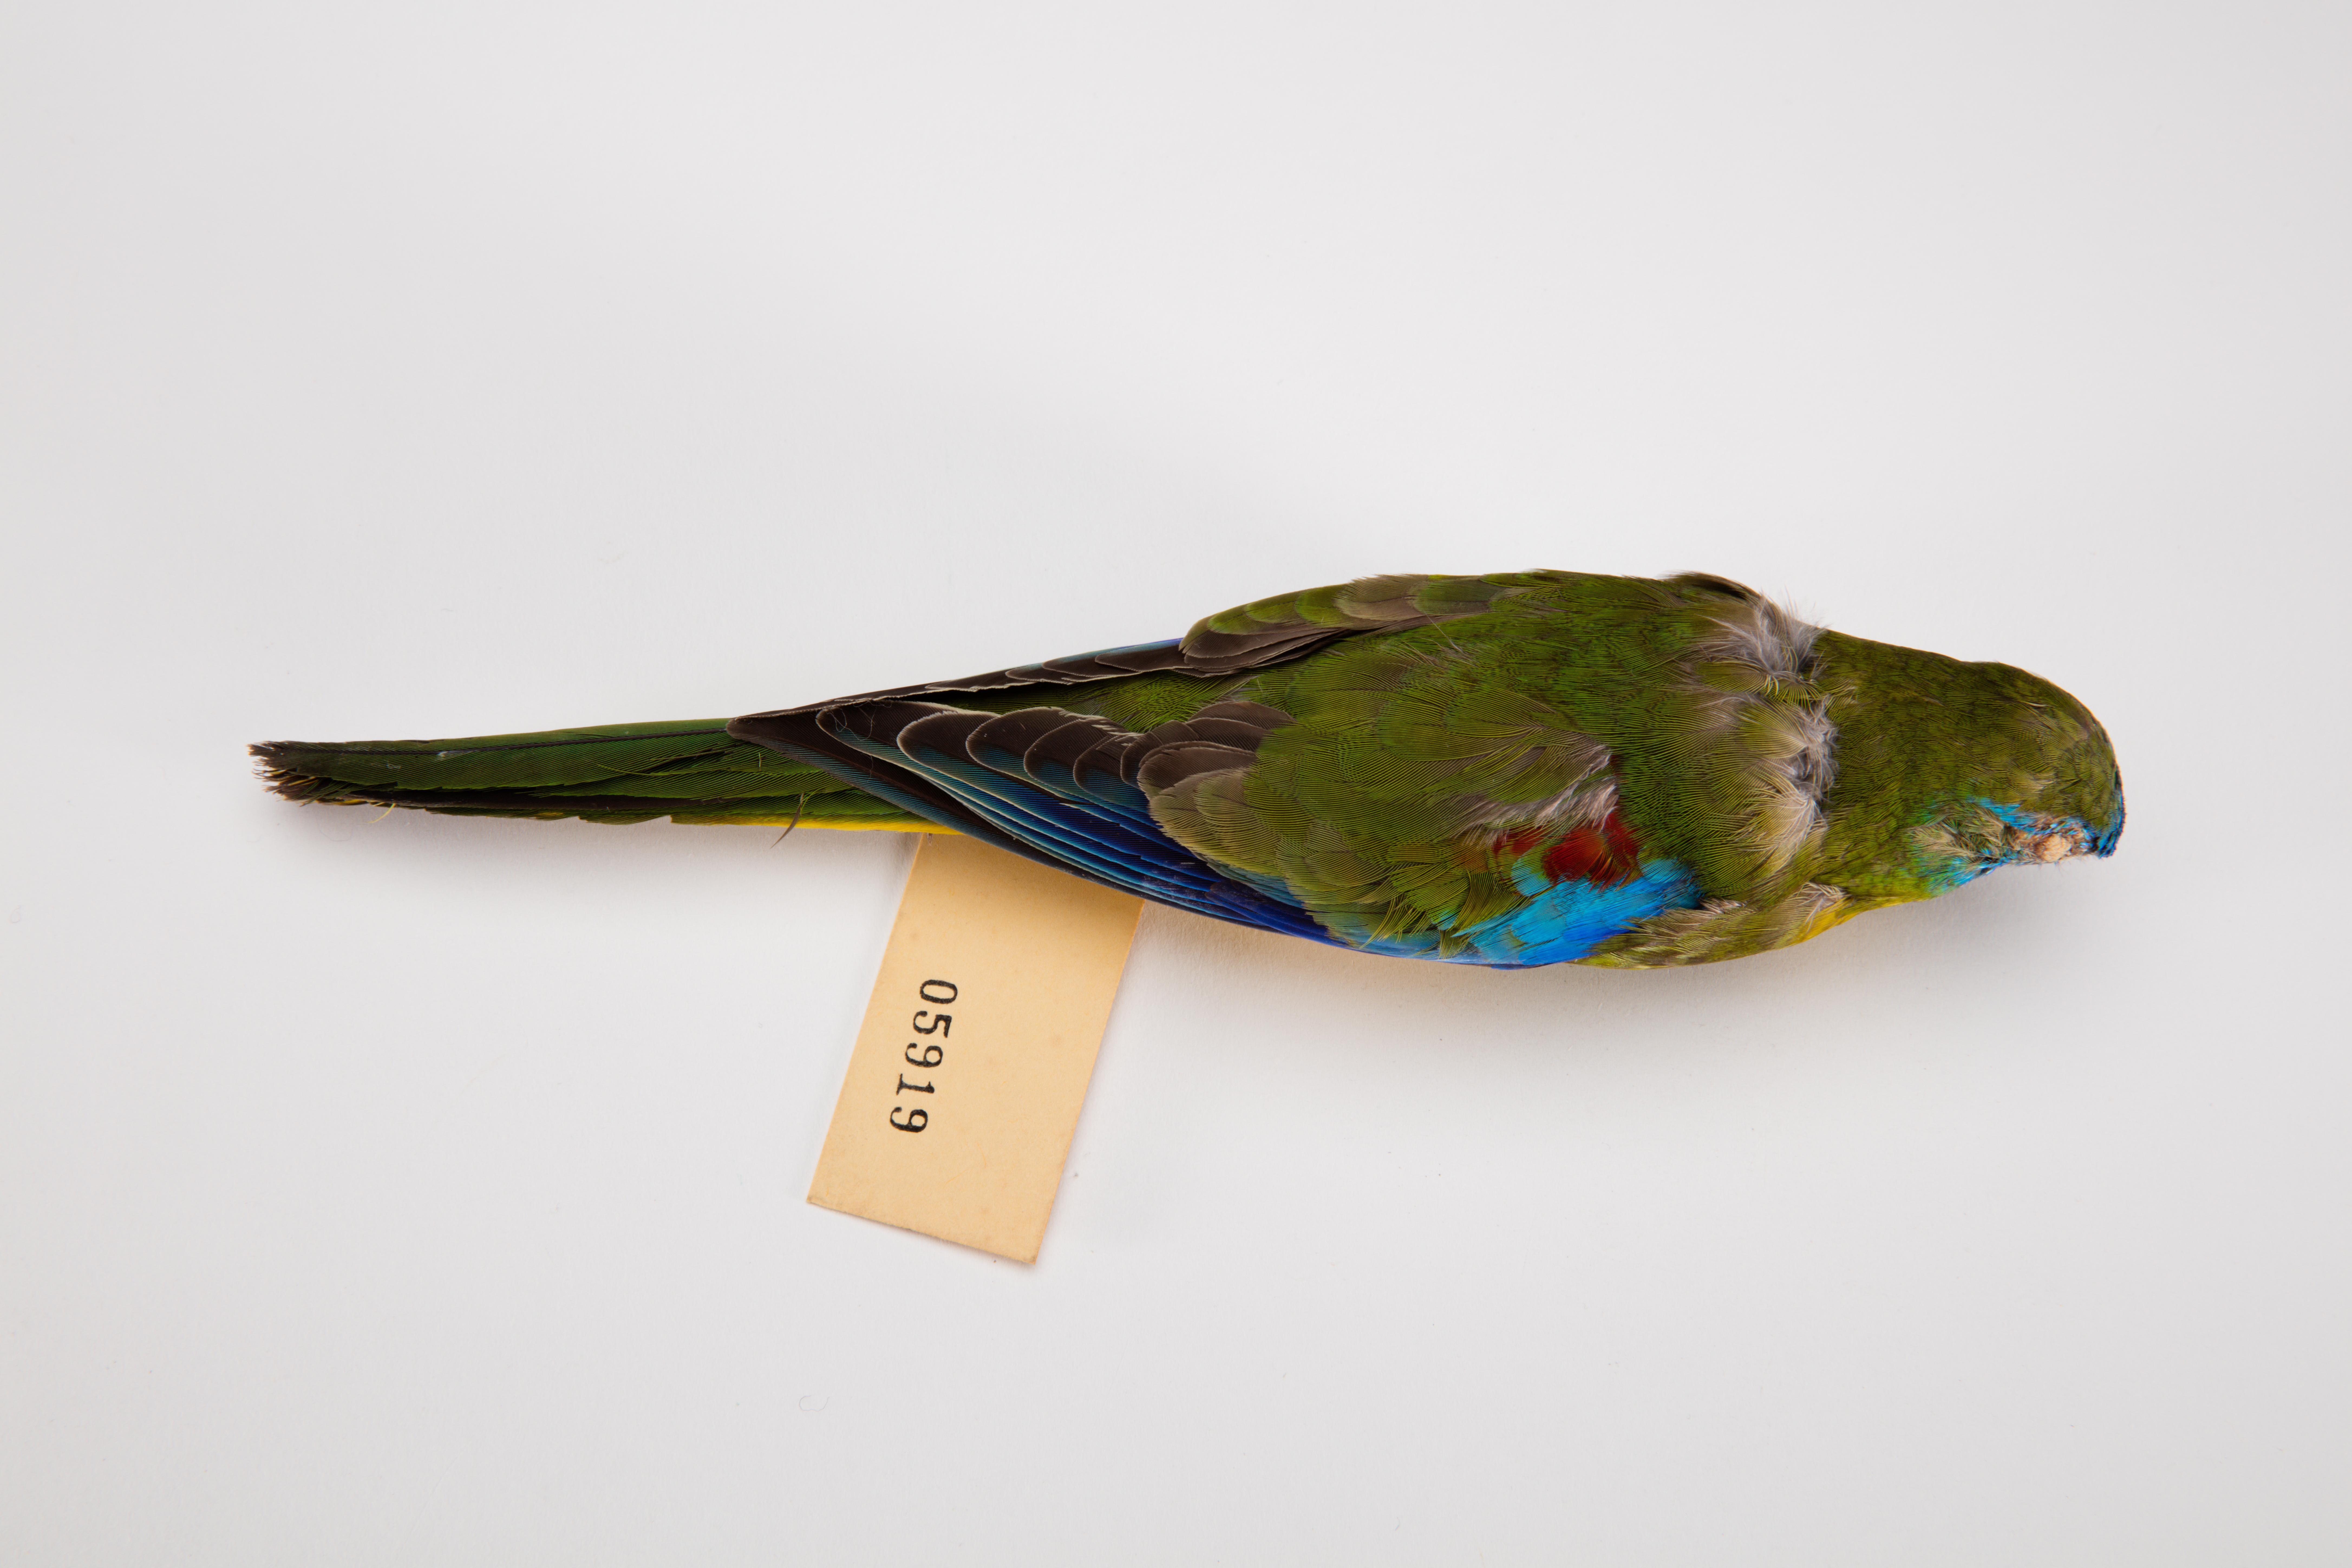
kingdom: Animalia
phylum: Chordata
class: Aves
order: Psittaciformes
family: Psittacidae
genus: Neophema
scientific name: Neophema pulchella
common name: Turquoise parrot
